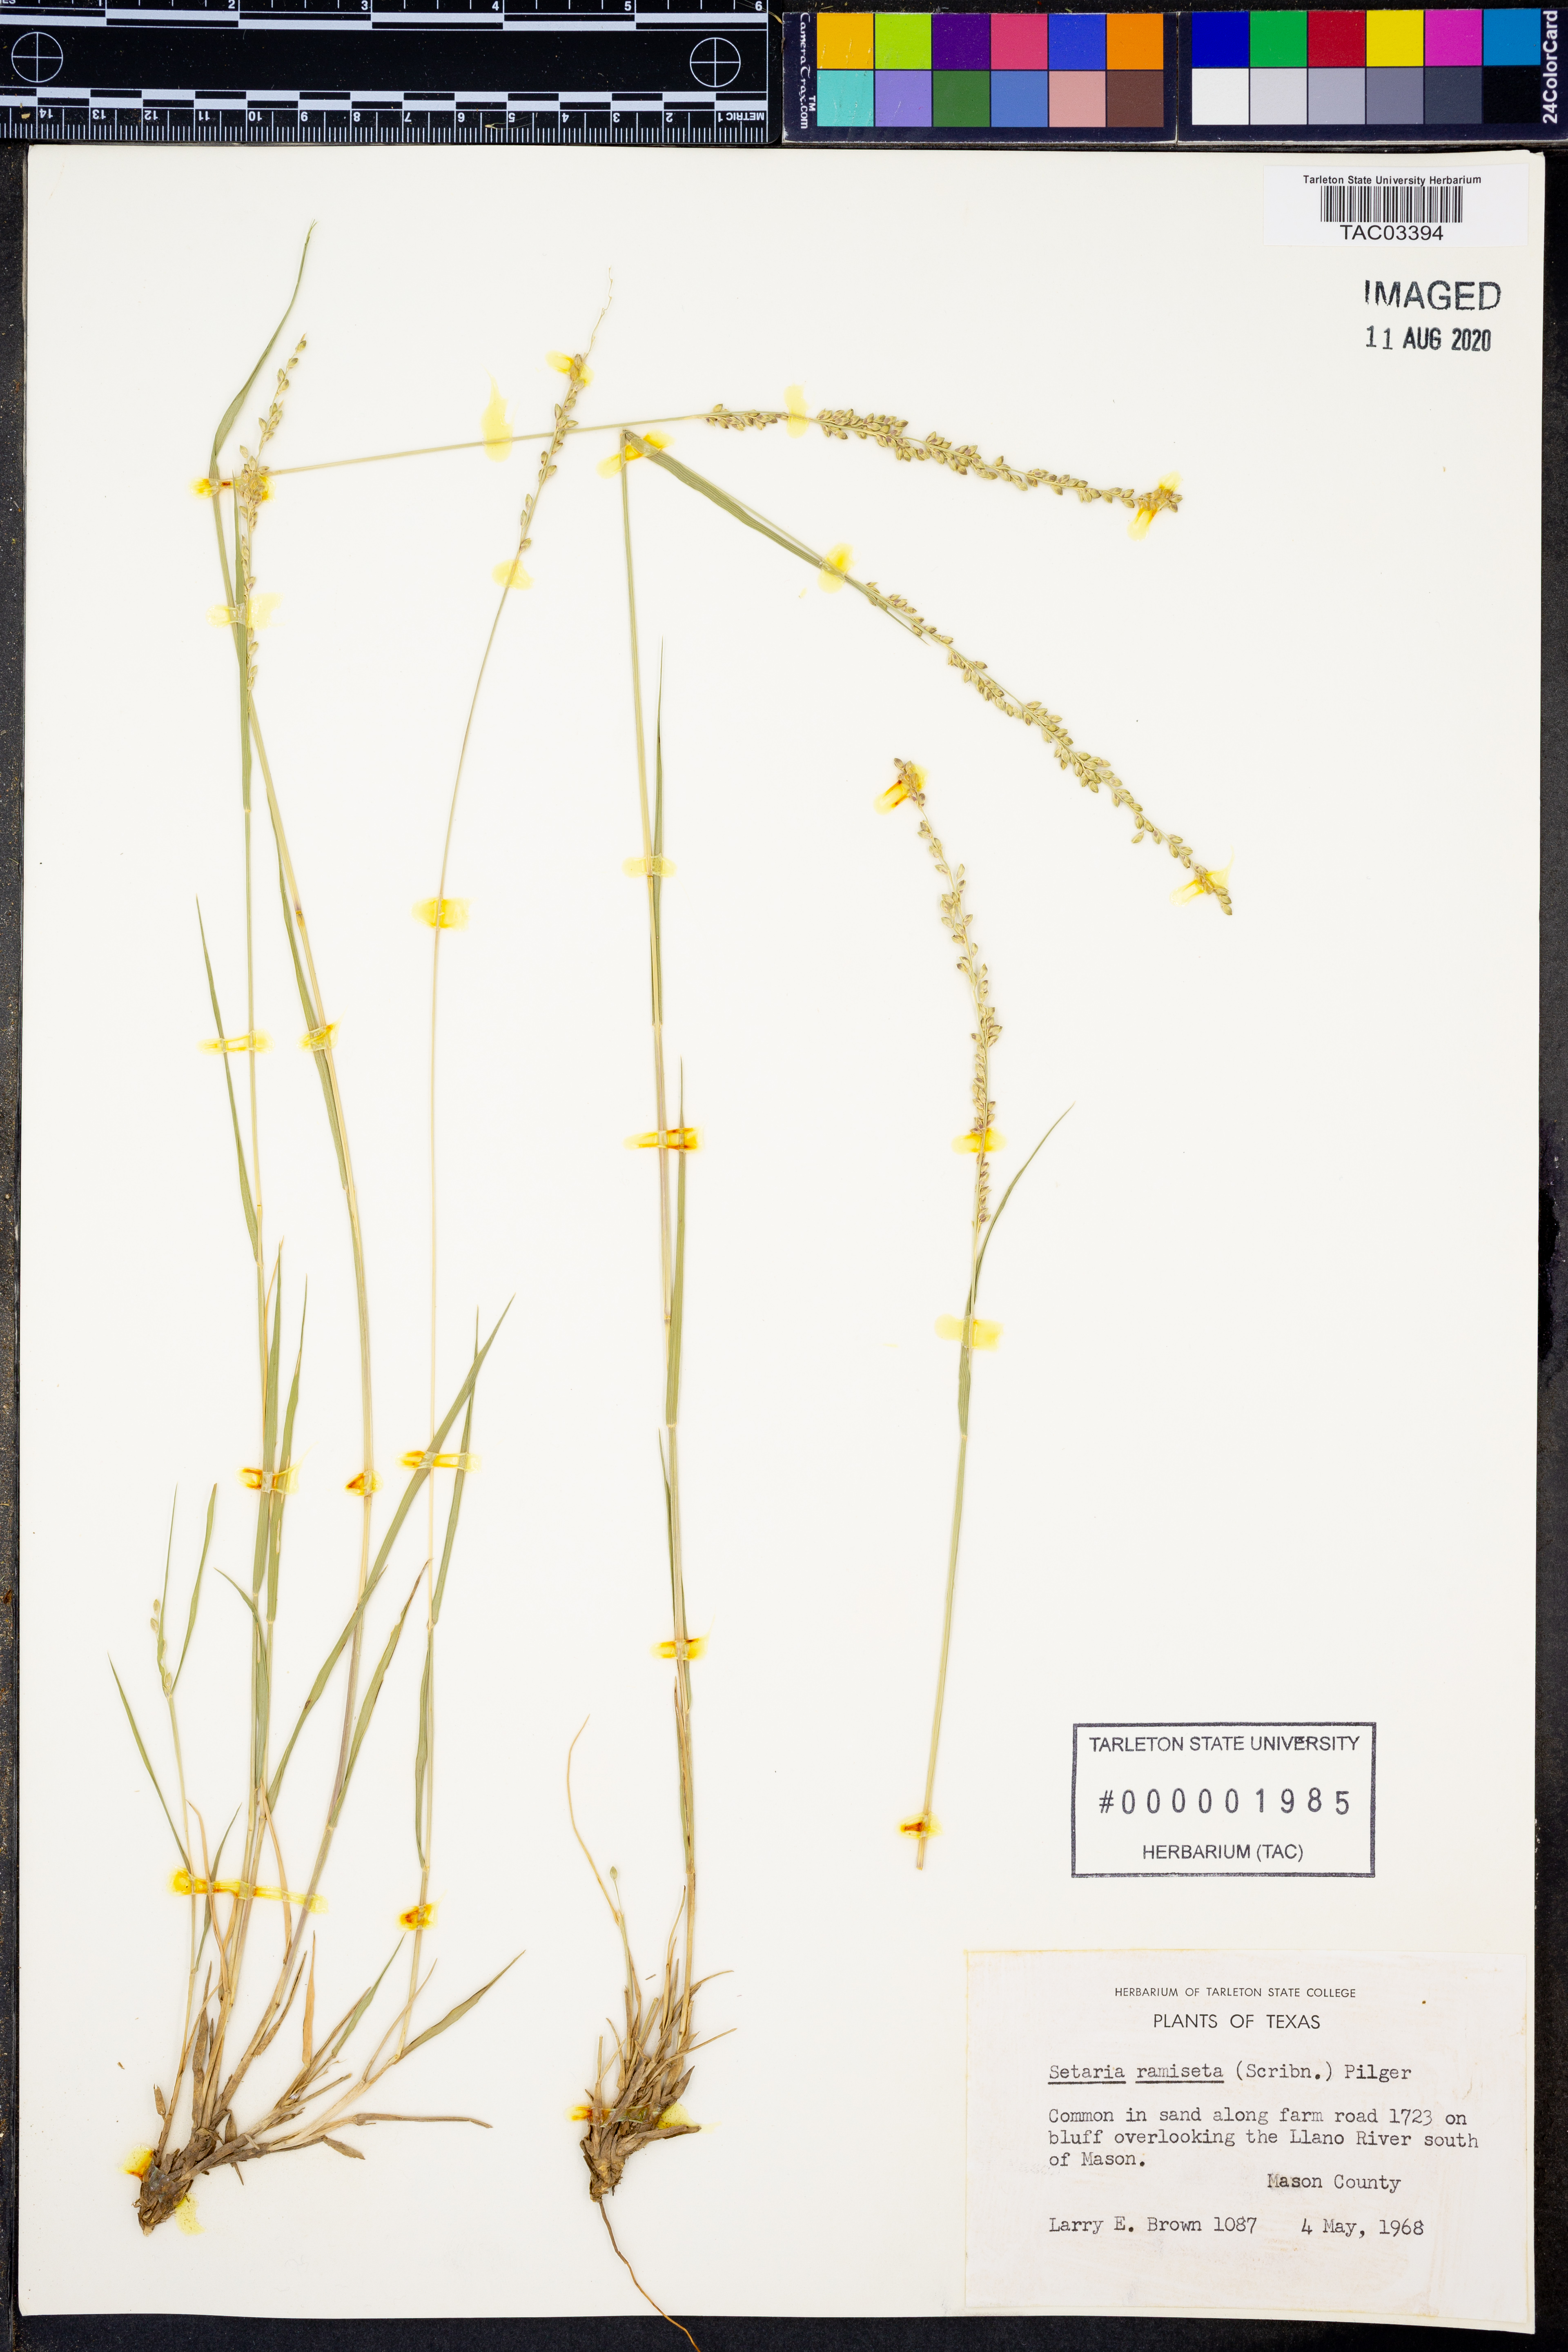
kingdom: Plantae
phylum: Tracheophyta
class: Liliopsida
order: Poales
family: Poaceae
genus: Setaria
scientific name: Setaria reverchonii
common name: Reverchon's bristle grass
